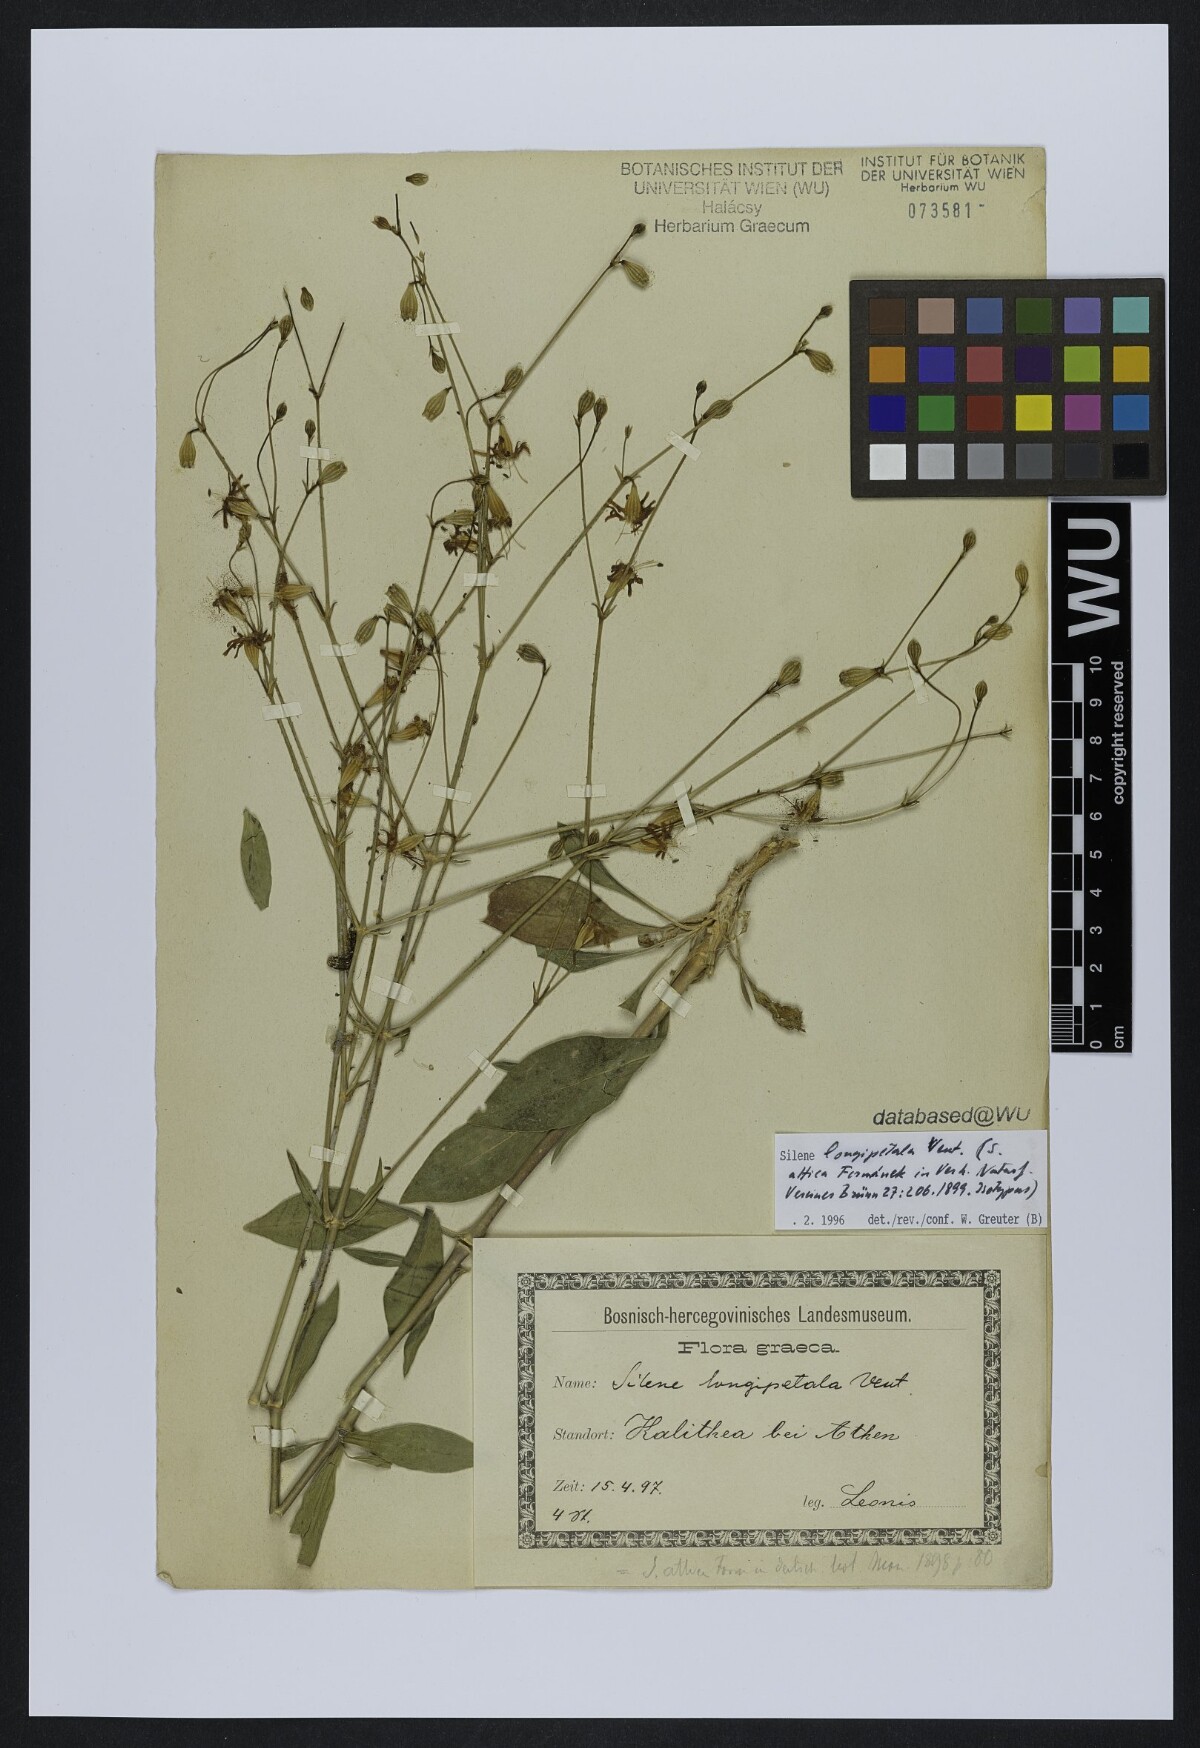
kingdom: Plantae
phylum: Tracheophyta
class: Magnoliopsida
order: Caryophyllales
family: Caryophyllaceae
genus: Silene
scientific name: Silene longipetala
